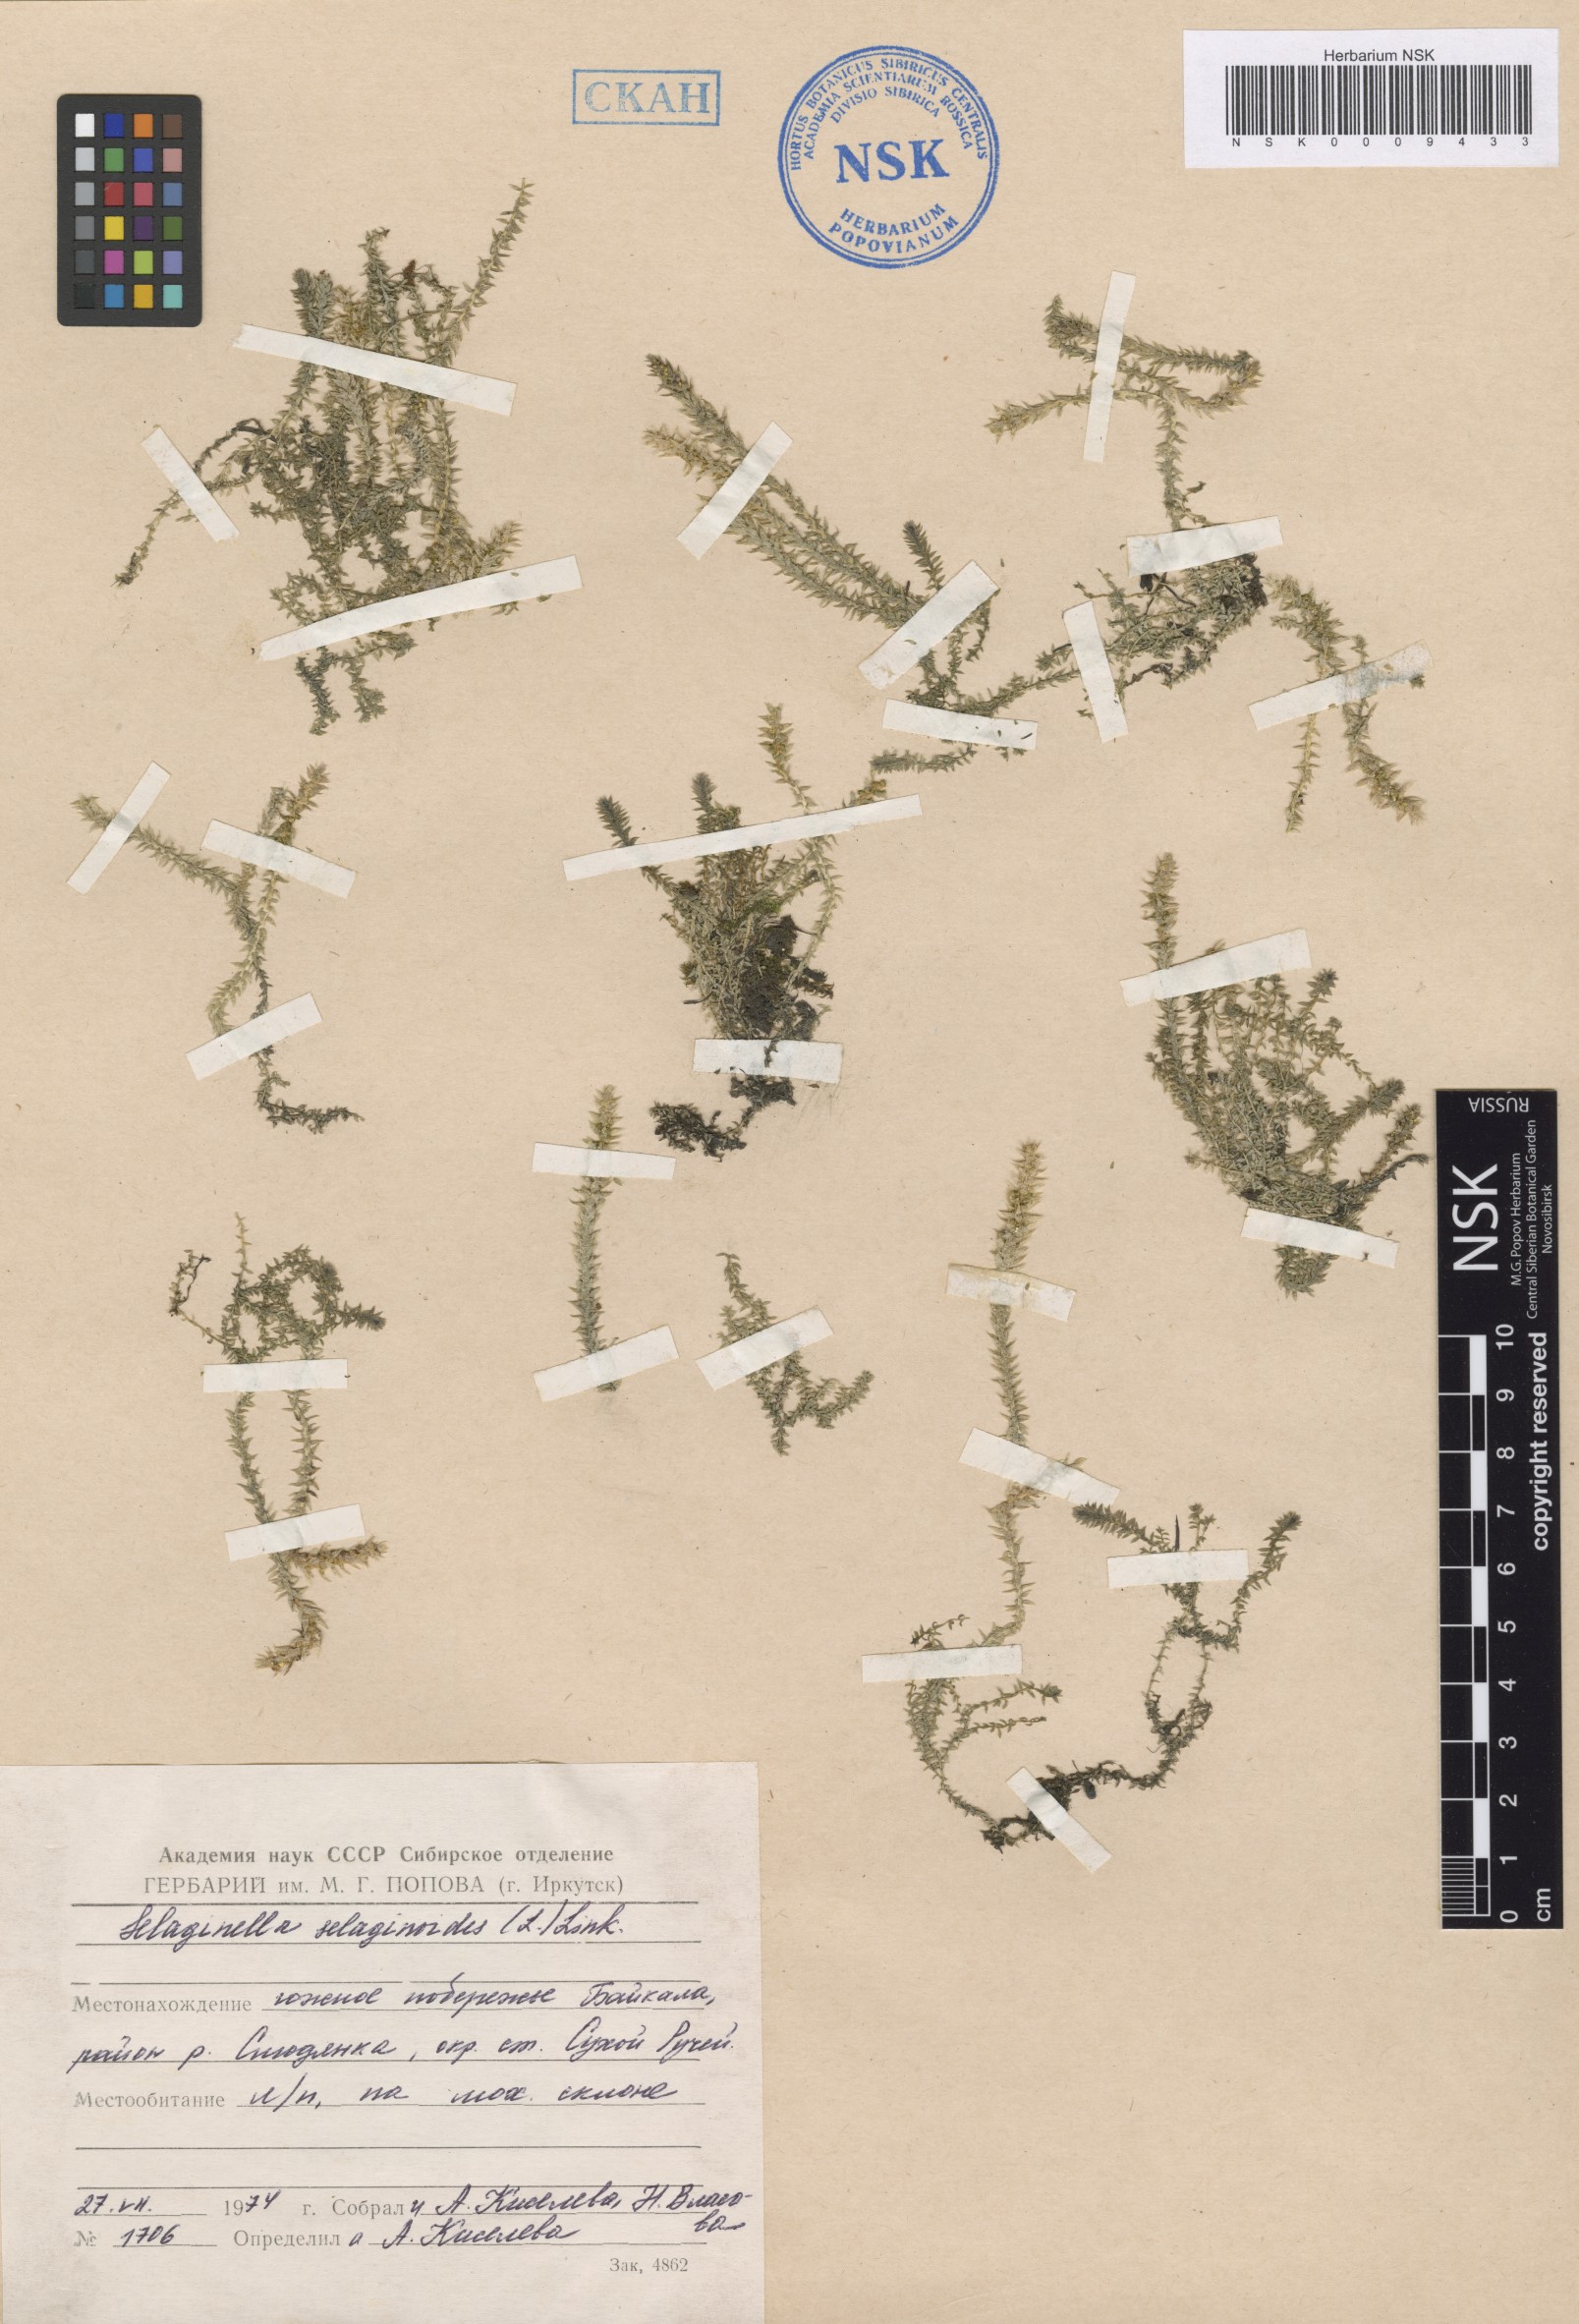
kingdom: Plantae
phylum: Tracheophyta
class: Lycopodiopsida
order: Selaginellales
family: Selaginellaceae
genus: Selaginella
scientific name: Selaginella selaginoides
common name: Prickly mountain-moss
